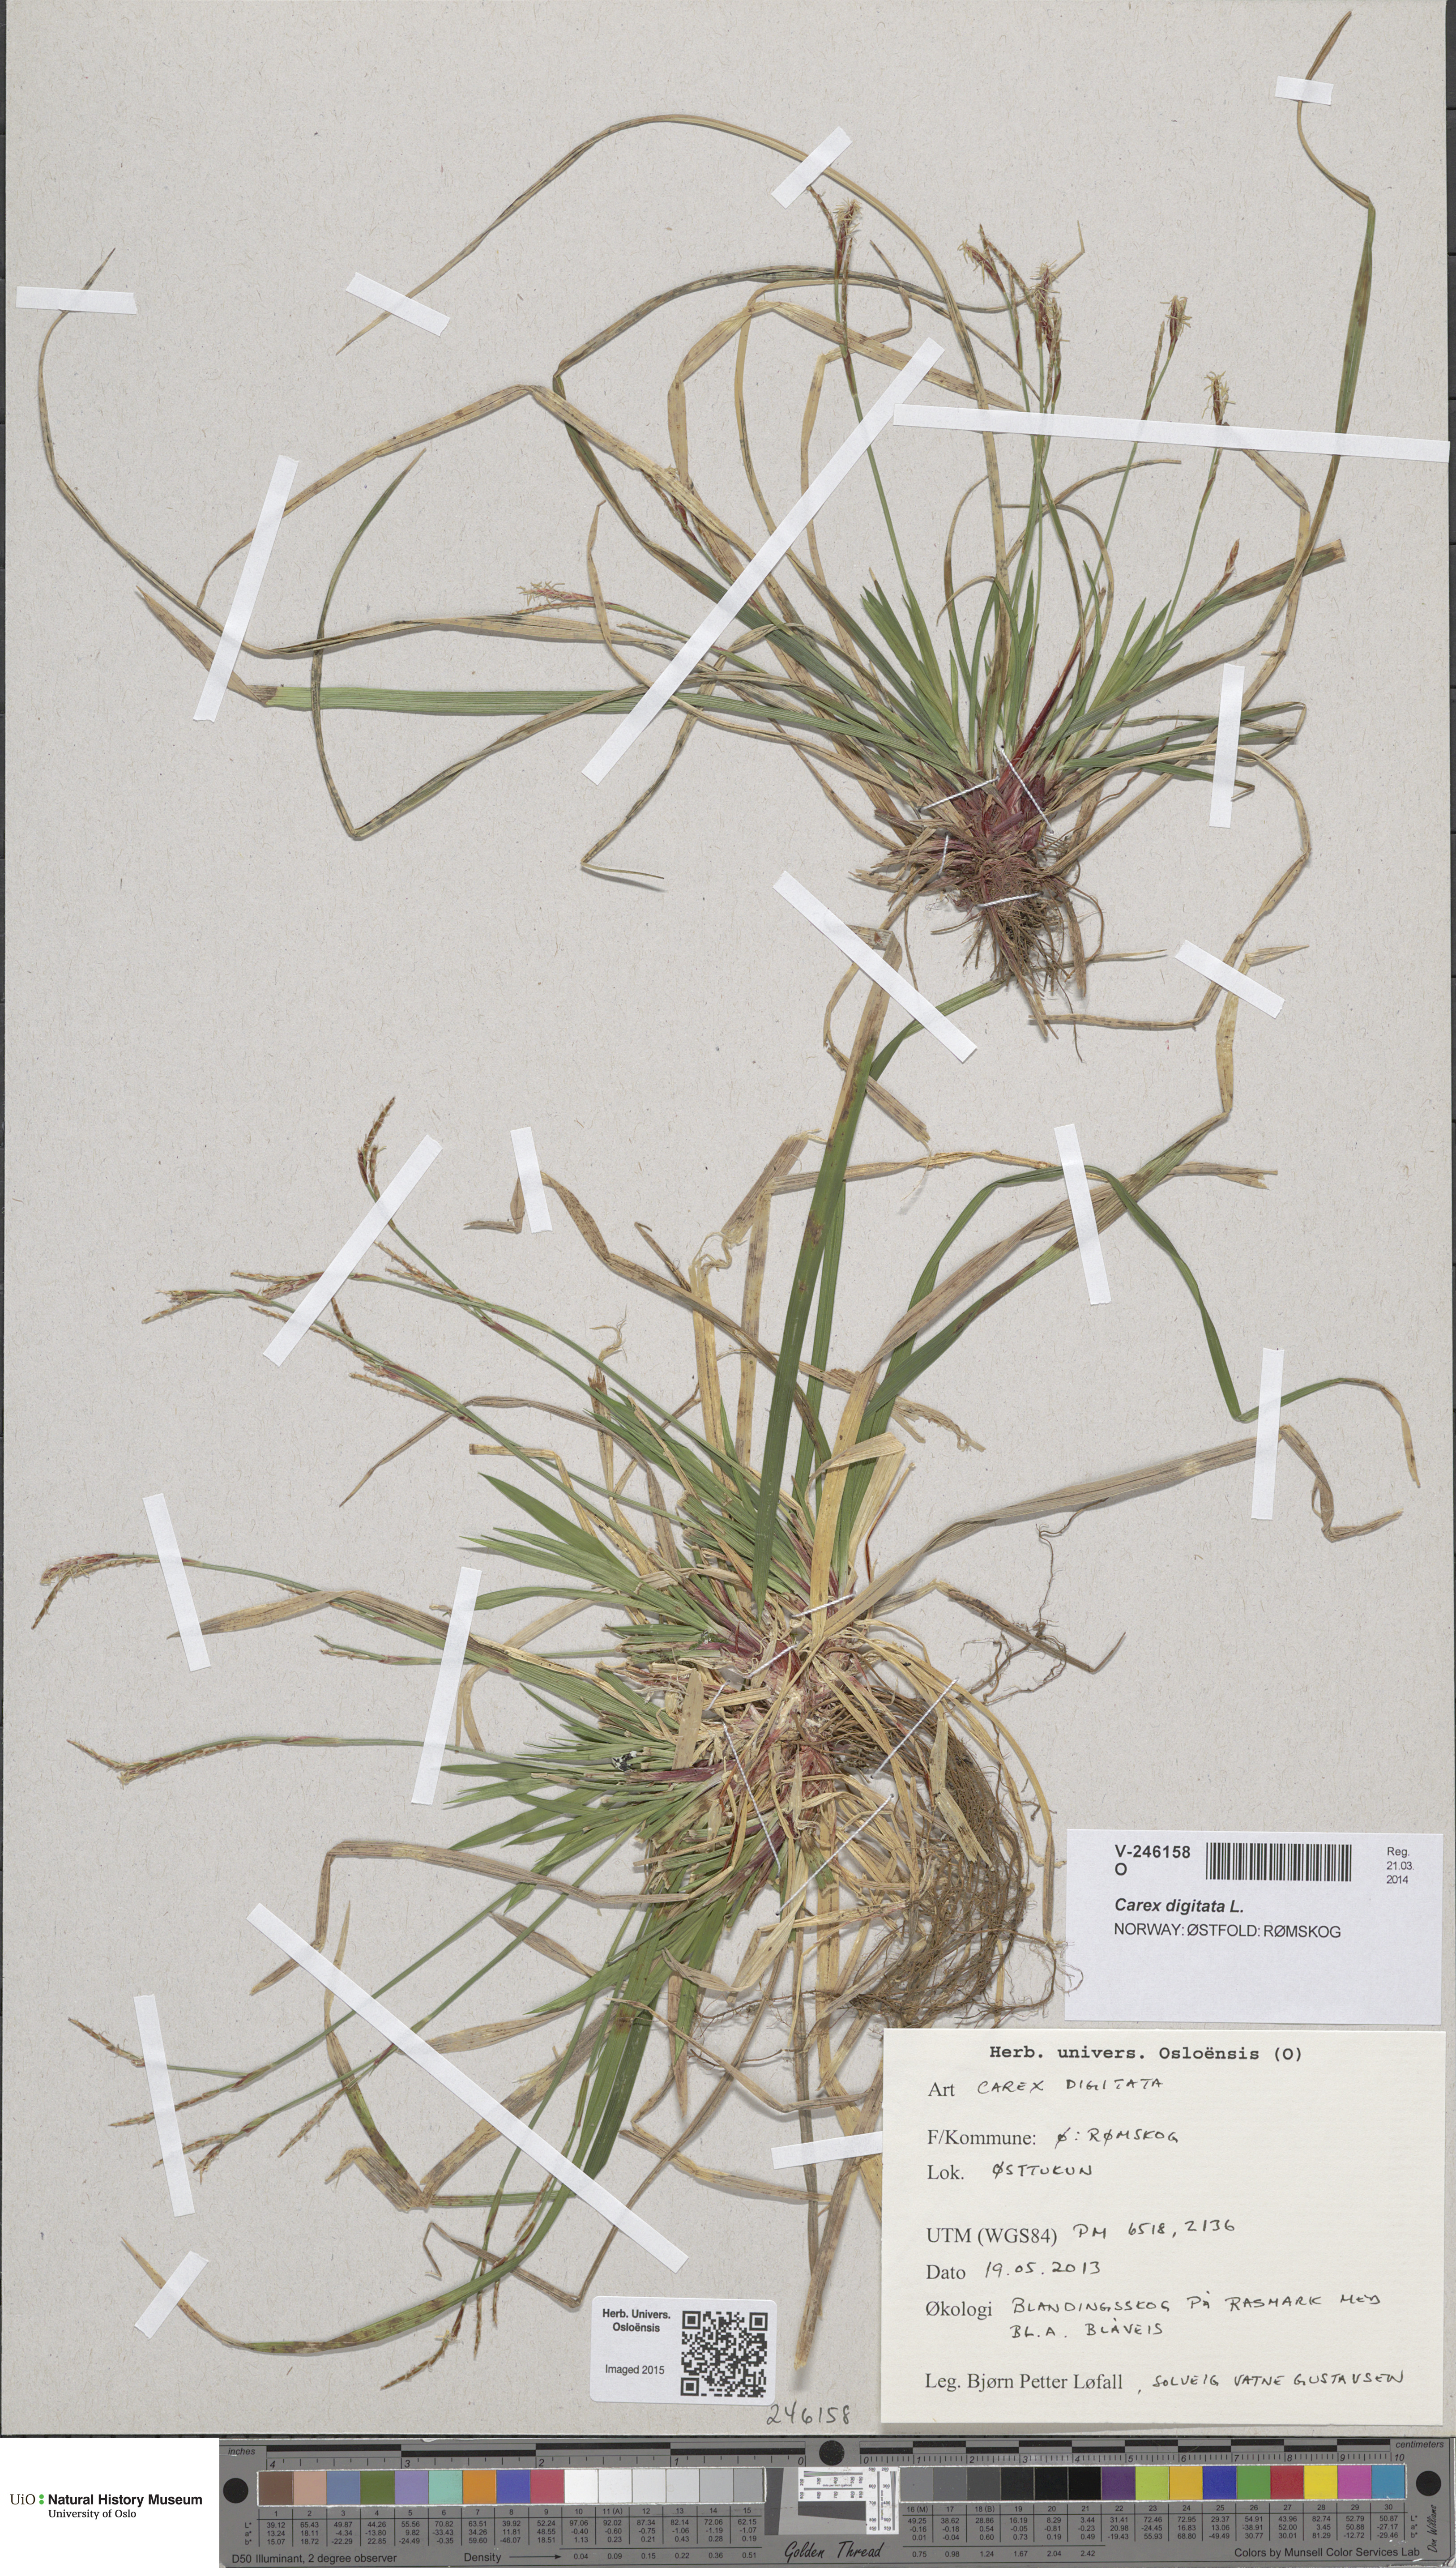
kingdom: Plantae
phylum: Tracheophyta
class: Liliopsida
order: Poales
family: Cyperaceae
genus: Carex
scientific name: Carex digitata
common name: Fingered sedge
